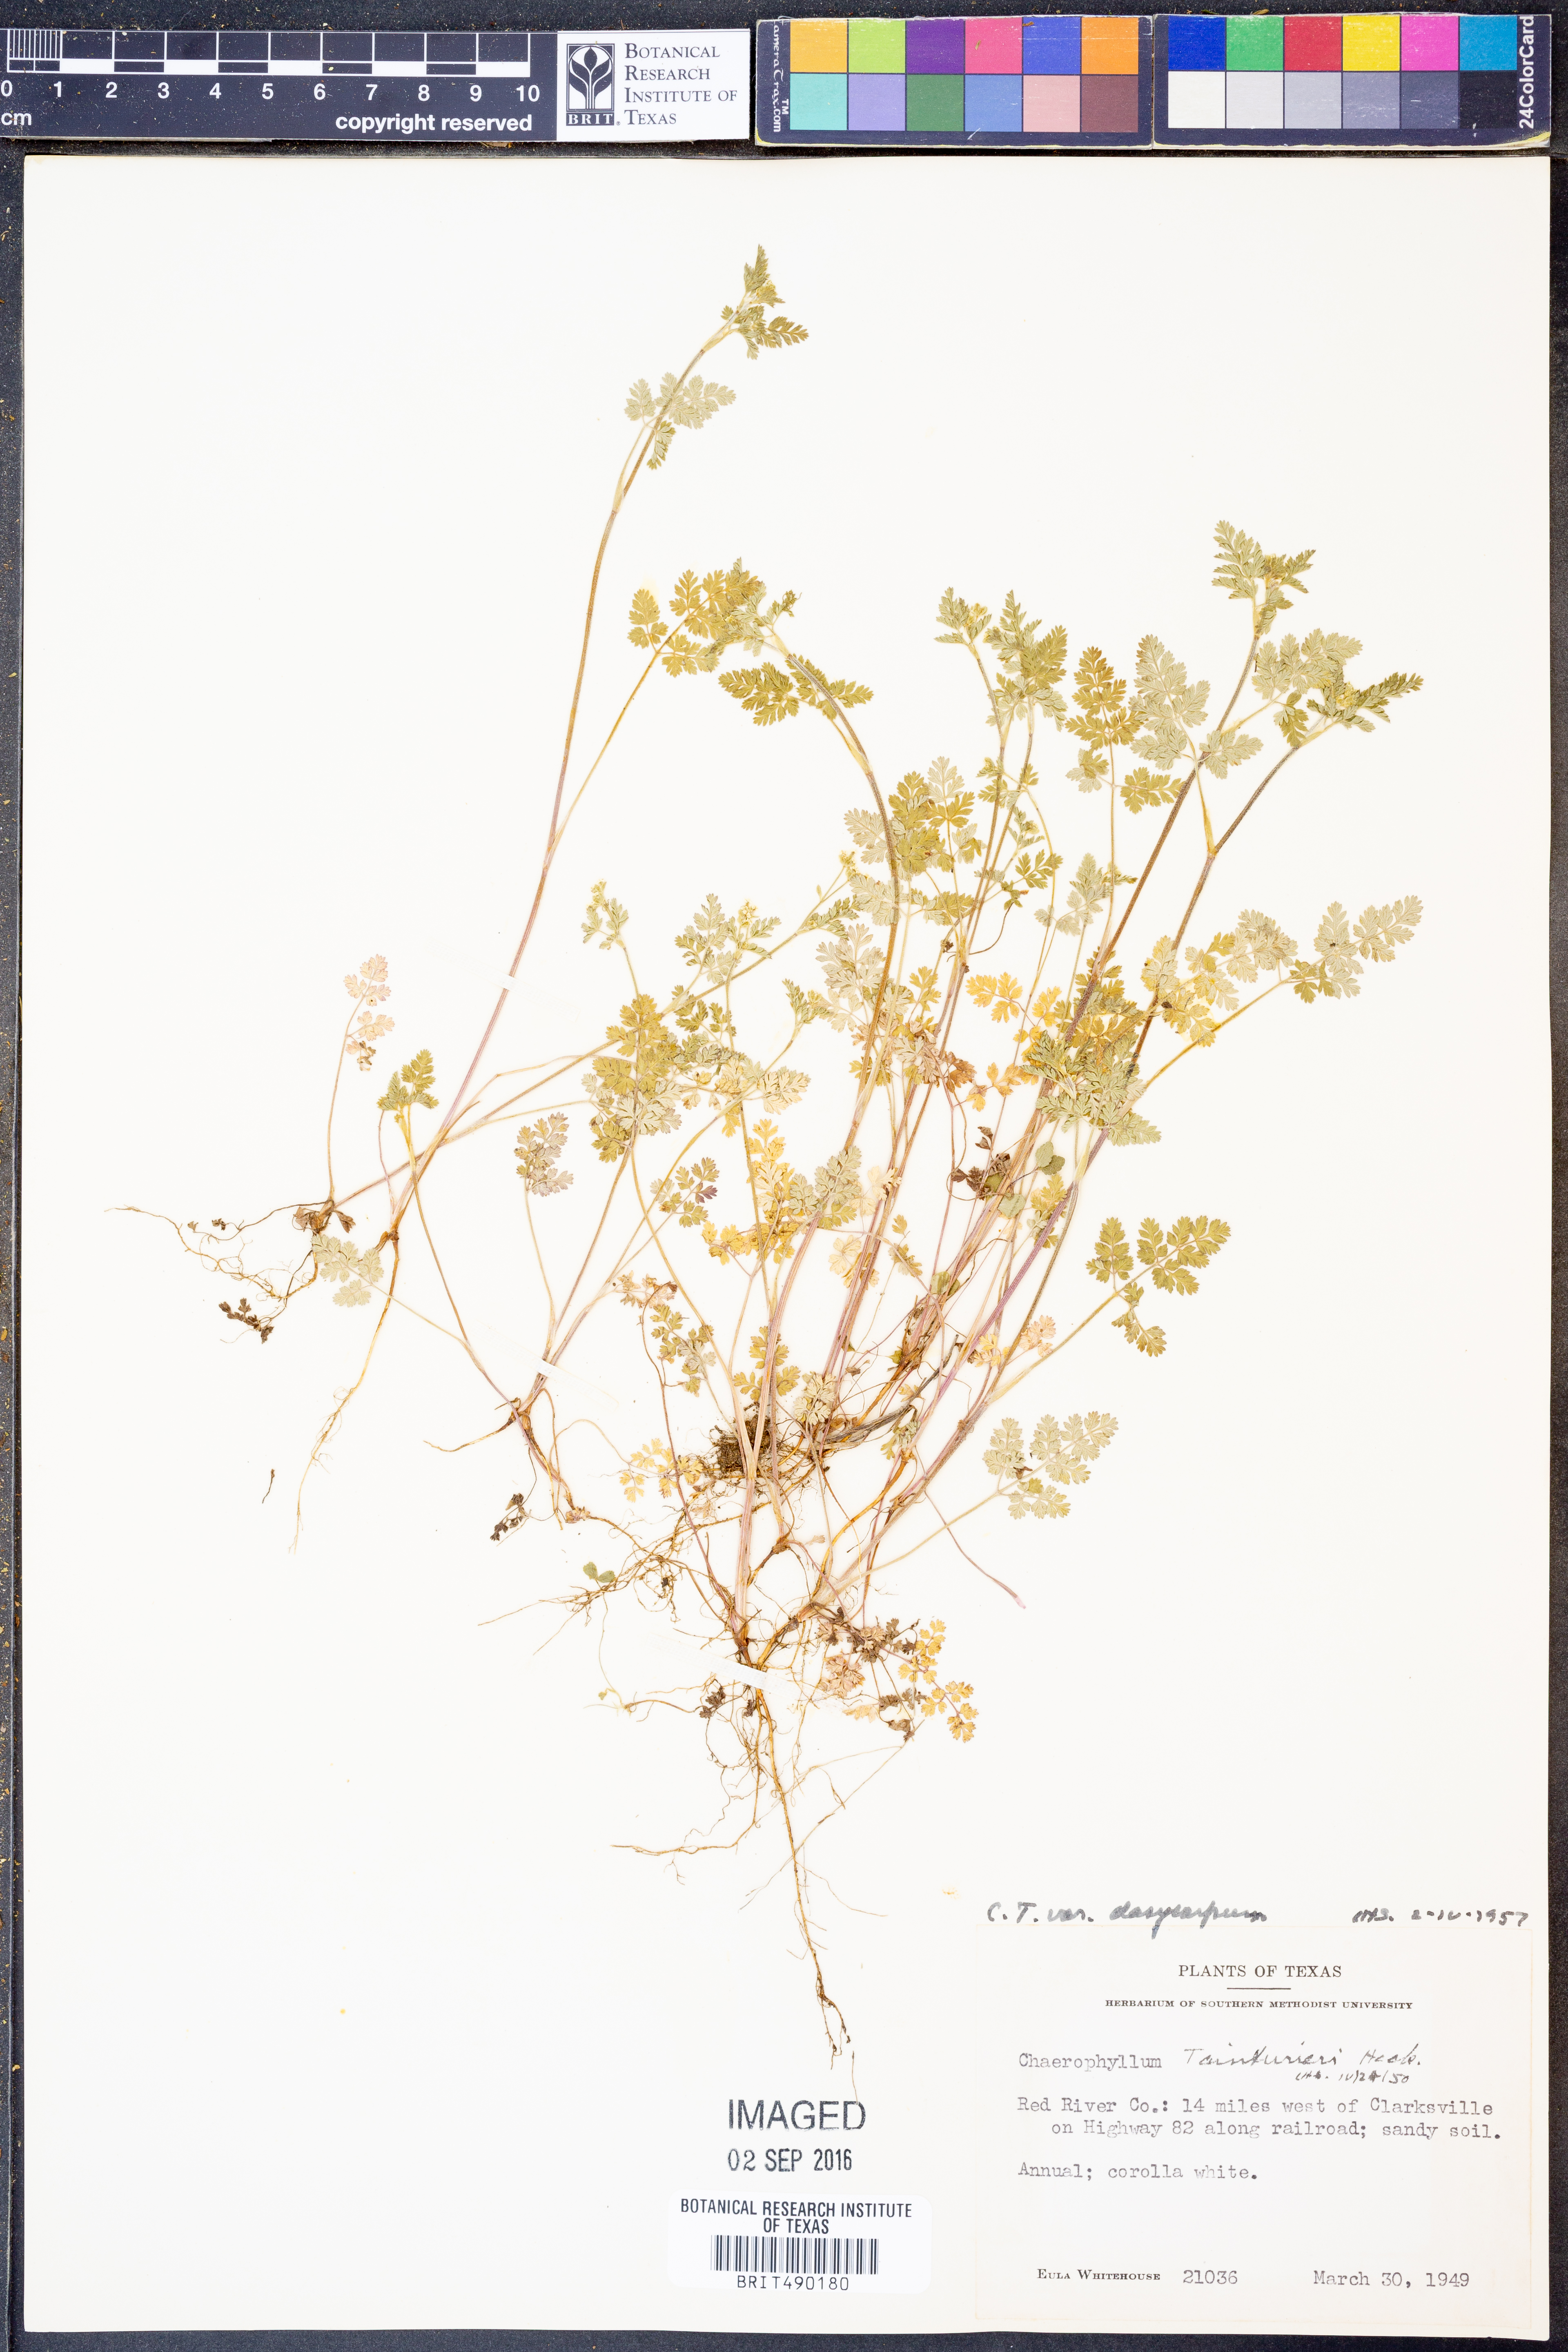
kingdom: Plantae
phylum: Tracheophyta
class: Magnoliopsida
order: Apiales
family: Apiaceae
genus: Chaerophyllum
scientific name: Chaerophyllum dasycarpum
